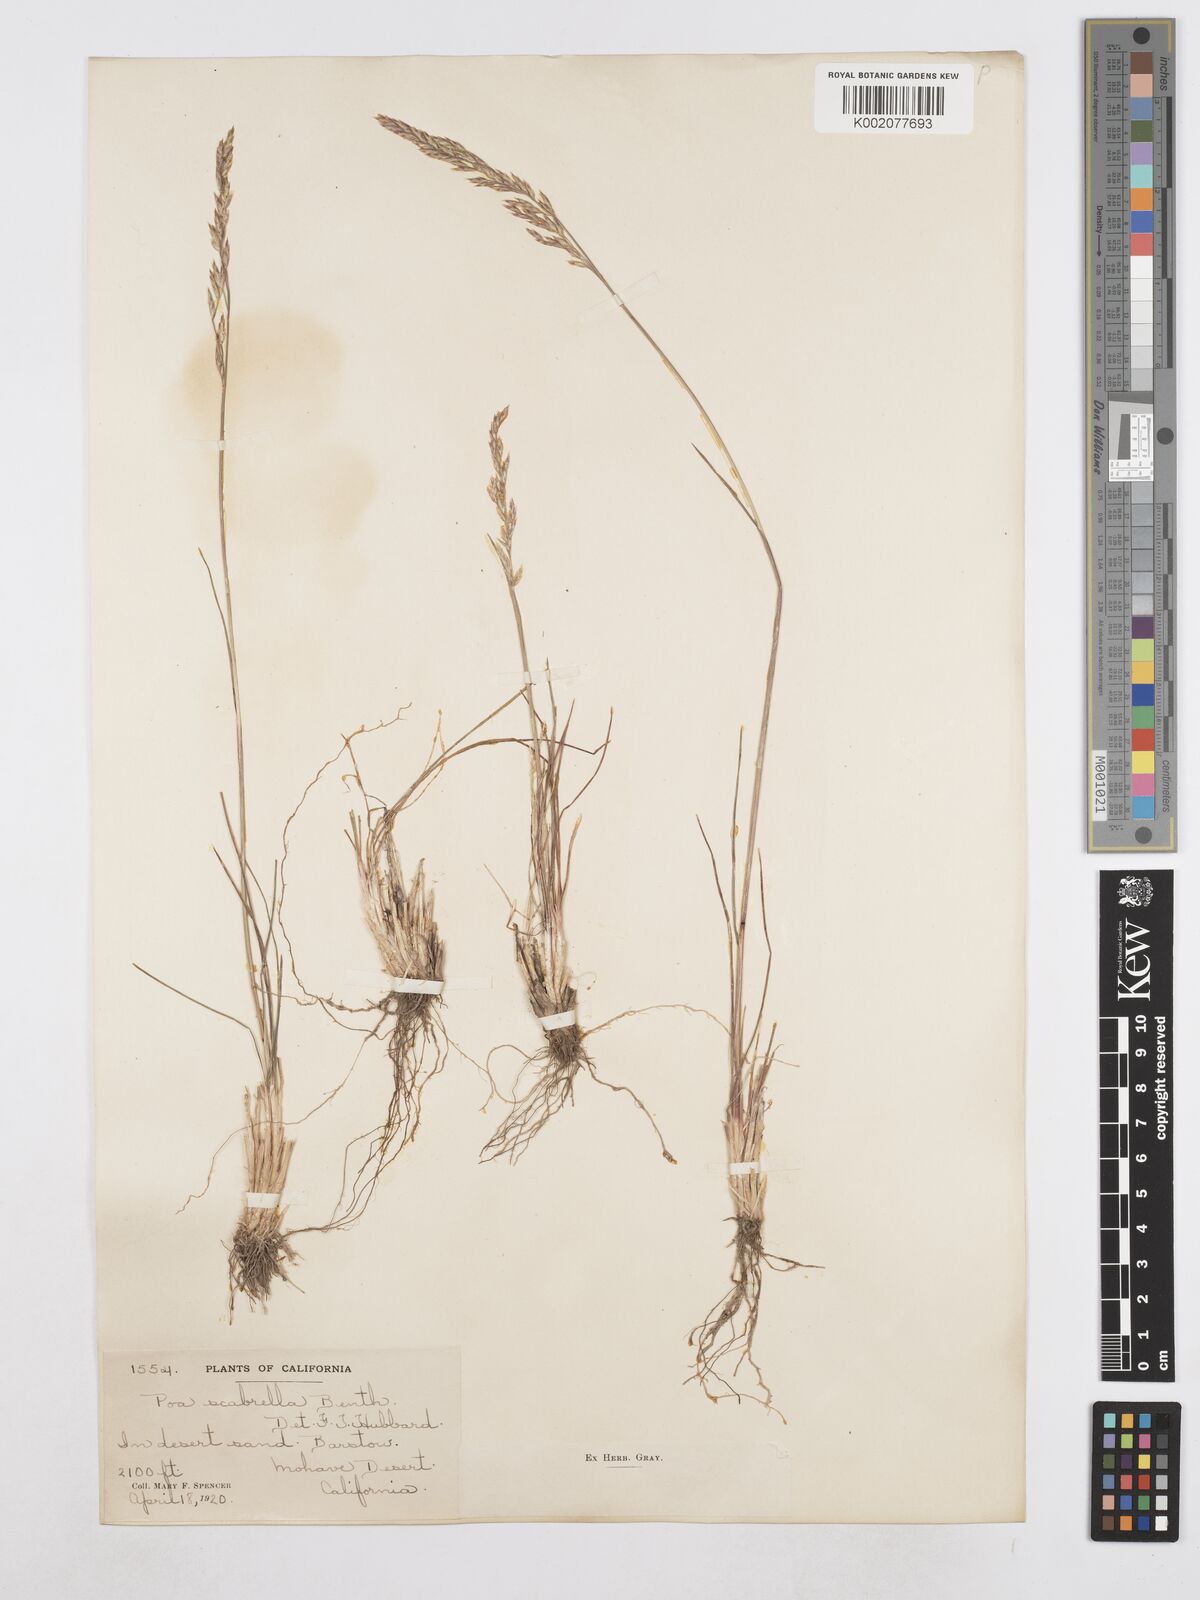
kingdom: Plantae
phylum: Tracheophyta
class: Liliopsida
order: Poales
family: Poaceae
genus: Poa
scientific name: Poa secunda
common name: Sandberg bluegrass
